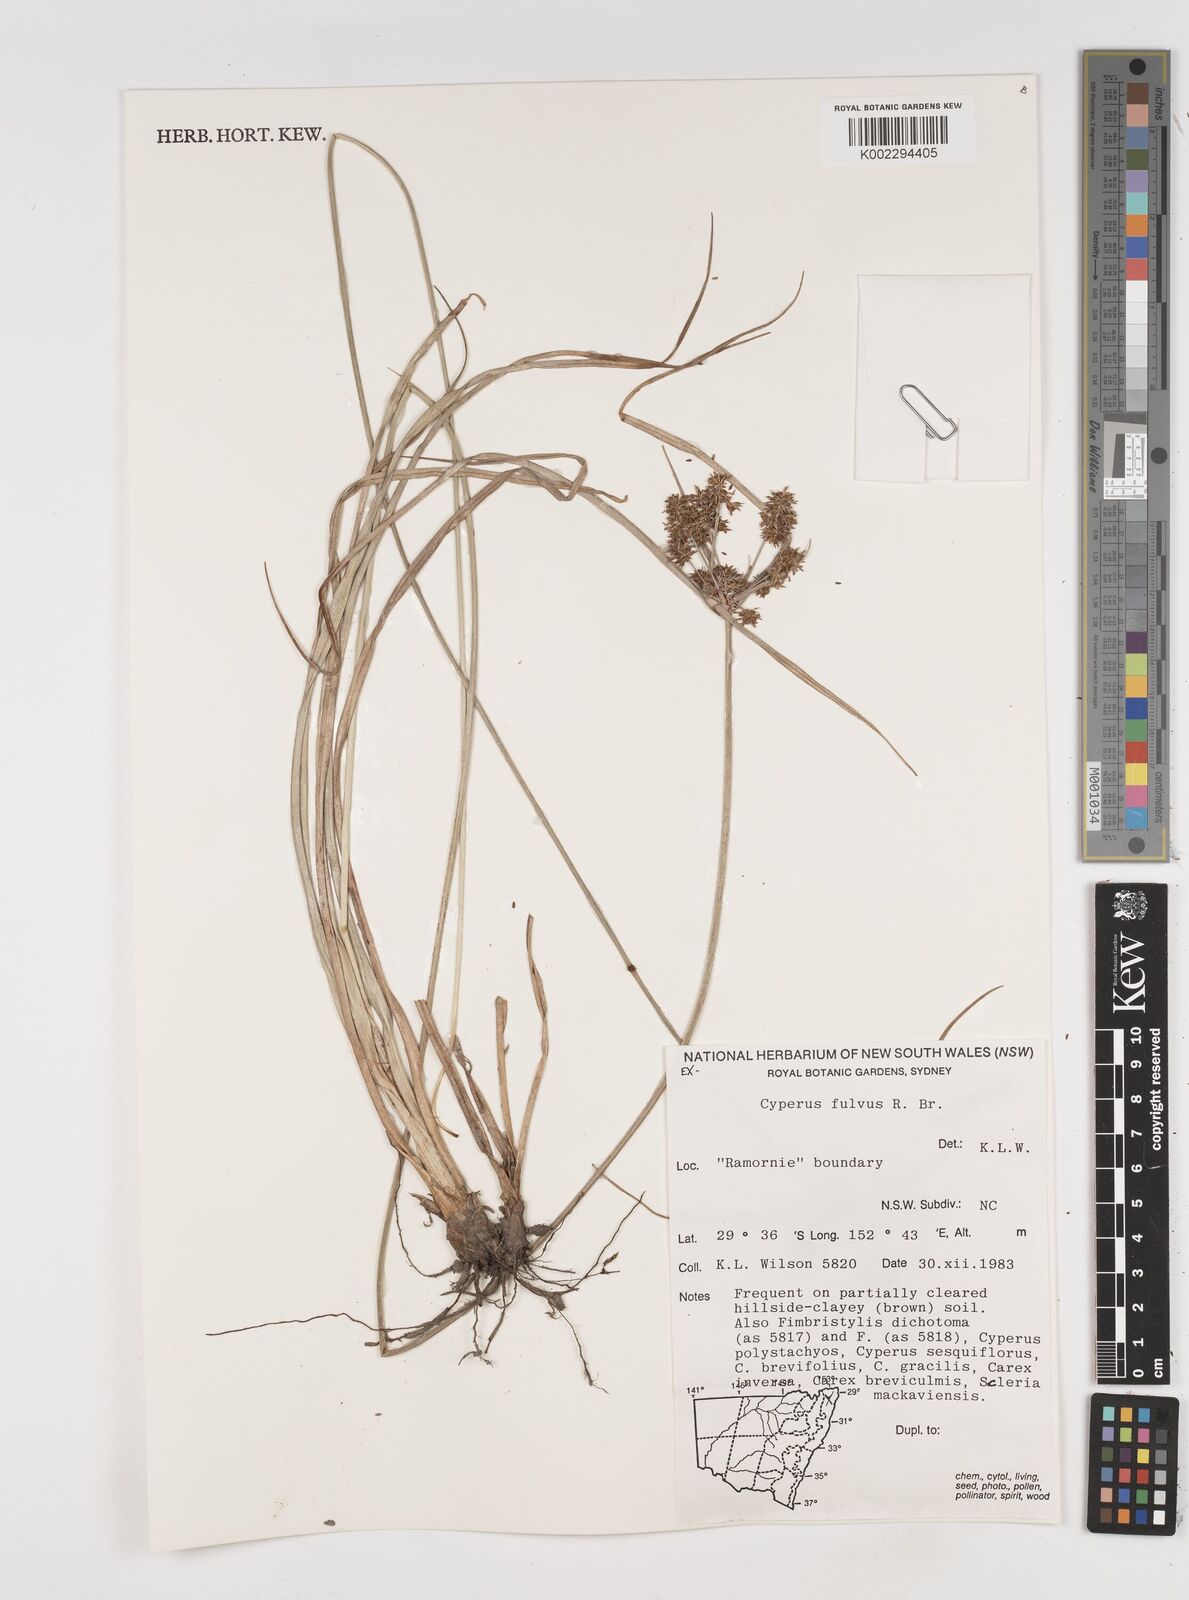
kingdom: Plantae
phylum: Tracheophyta
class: Liliopsida
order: Poales
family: Cyperaceae
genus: Cyperus
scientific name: Cyperus fulvus
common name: Sticky sedge
